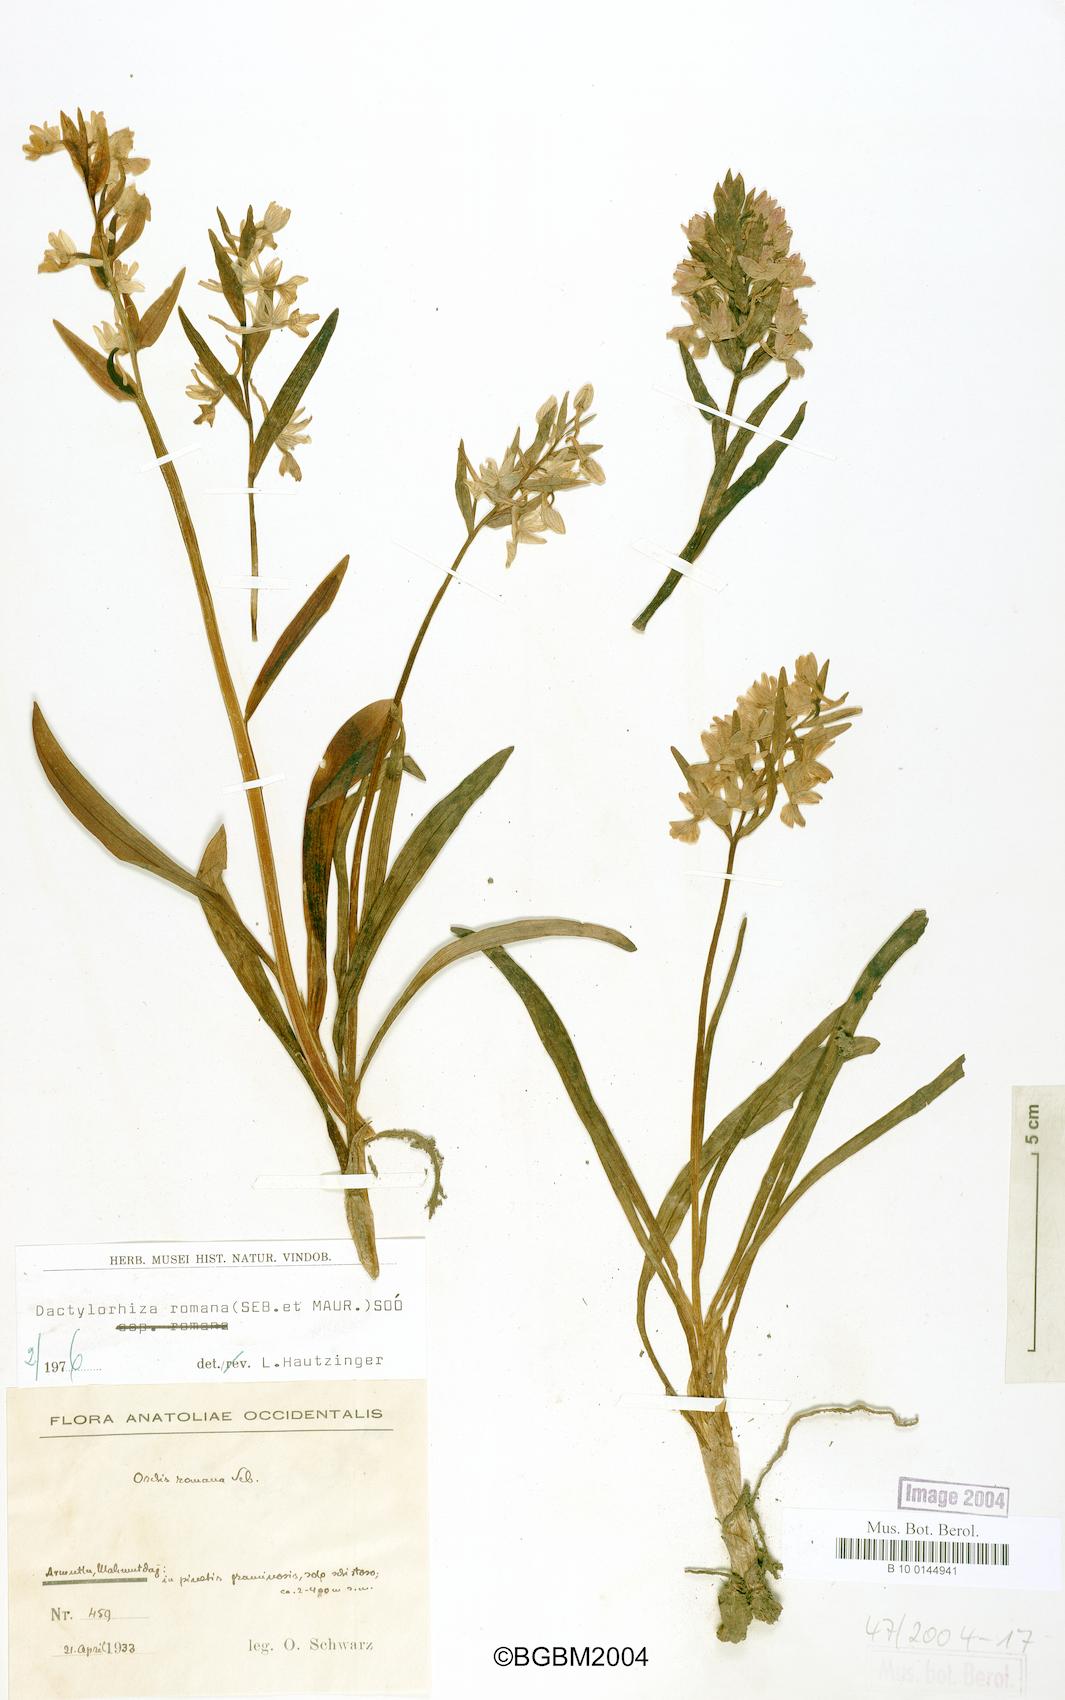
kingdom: Plantae
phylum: Tracheophyta
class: Liliopsida
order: Asparagales
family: Orchidaceae
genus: Dactylorhiza
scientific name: Dactylorhiza romana
